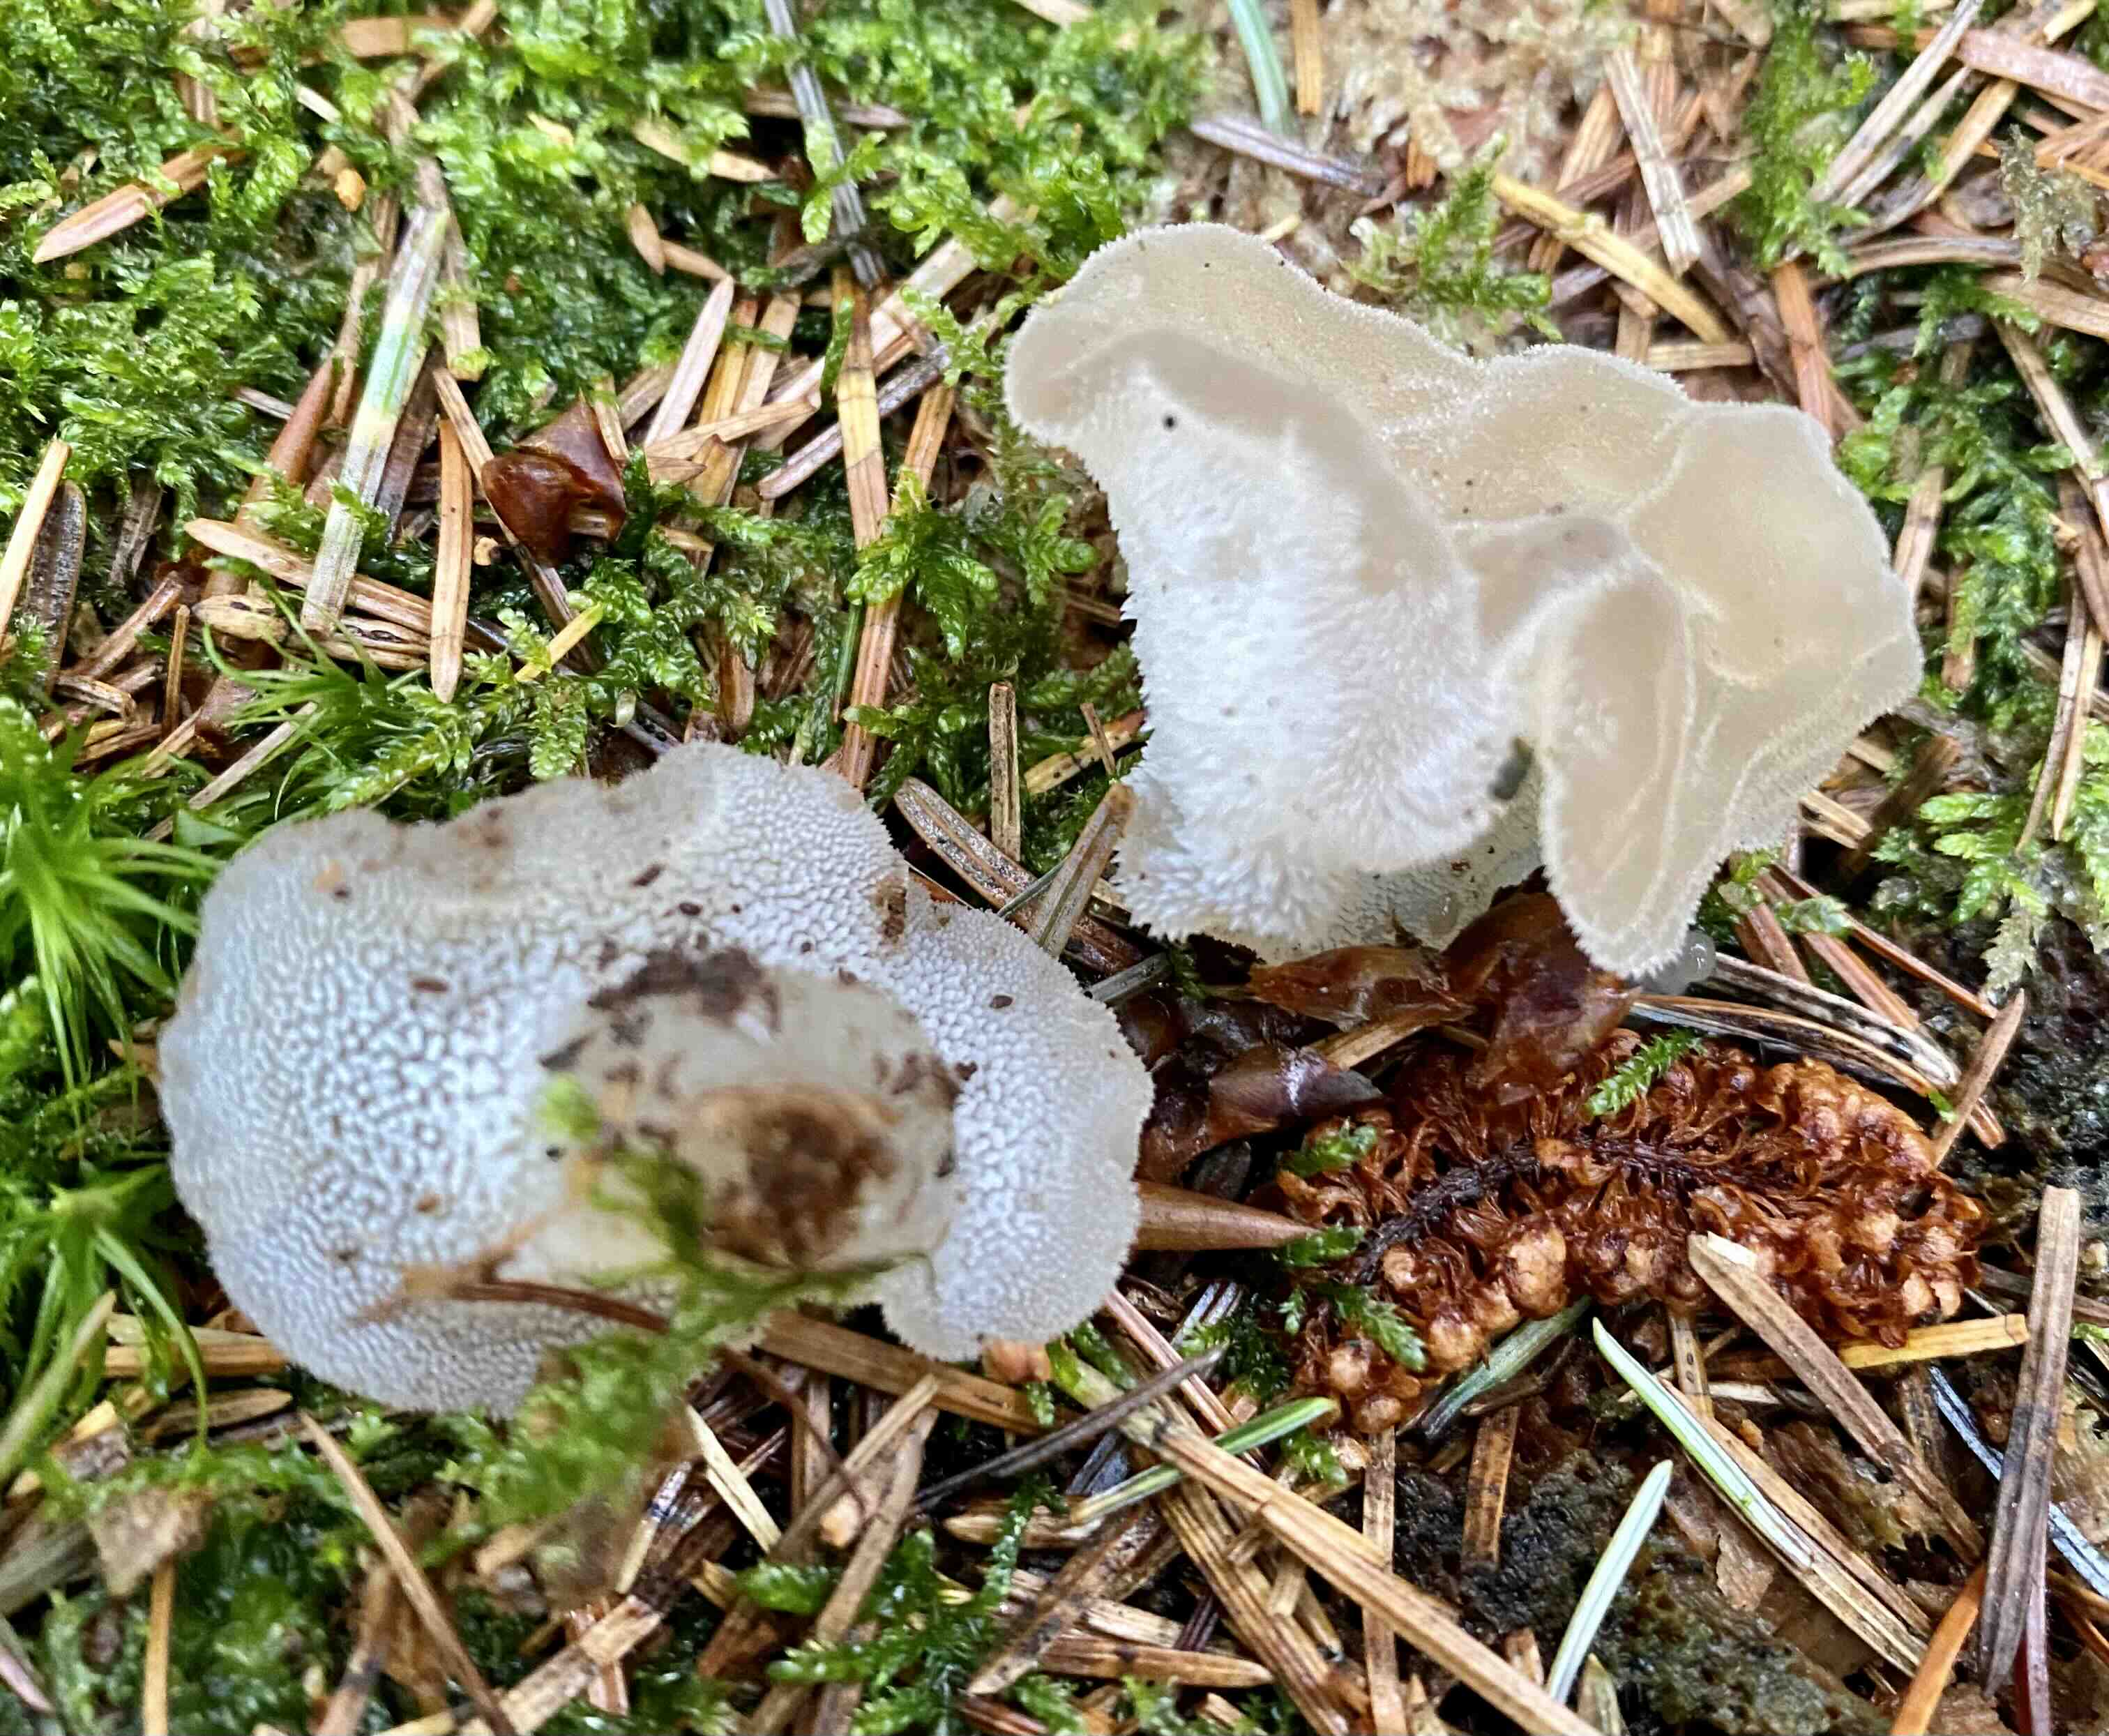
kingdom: Fungi
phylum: Basidiomycota
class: Agaricomycetes
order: Auriculariales
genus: Pseudohydnum
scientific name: Pseudohydnum gelatinosum
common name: bævretand
